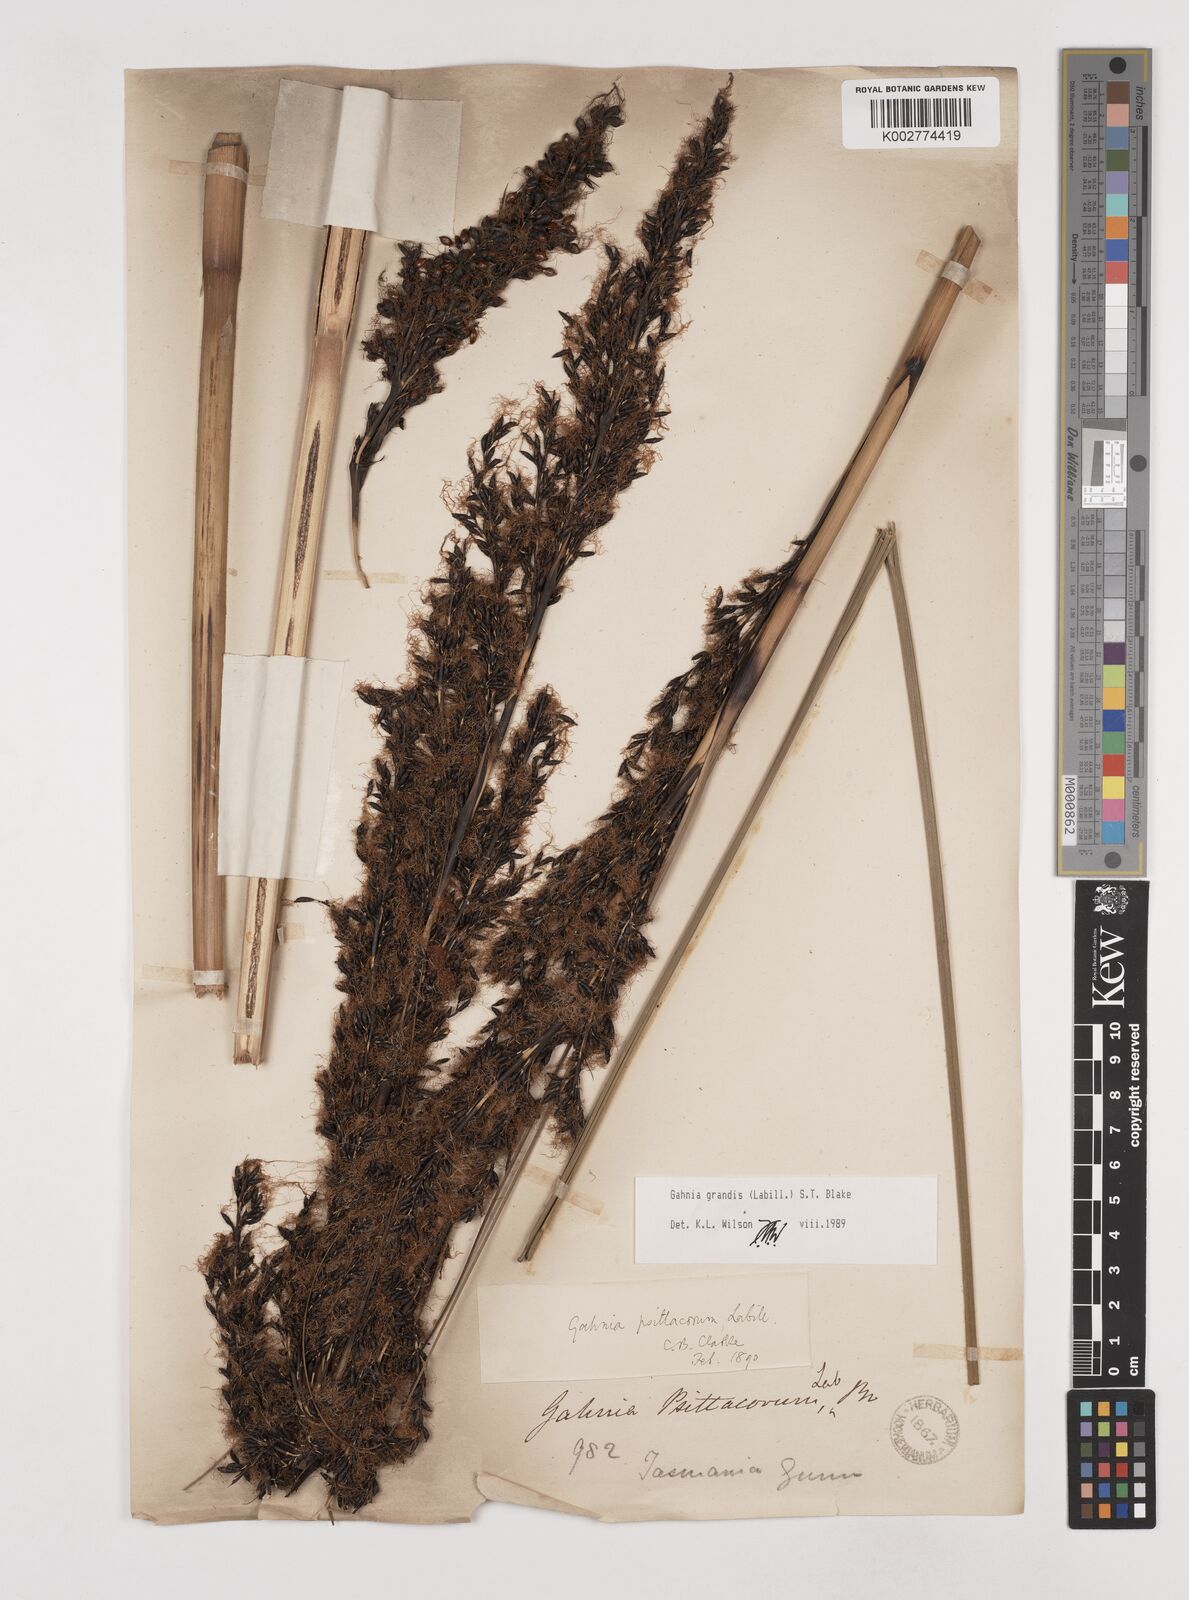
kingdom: Plantae
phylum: Tracheophyta
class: Liliopsida
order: Poales
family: Cyperaceae
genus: Gahnia
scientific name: Gahnia grandis
